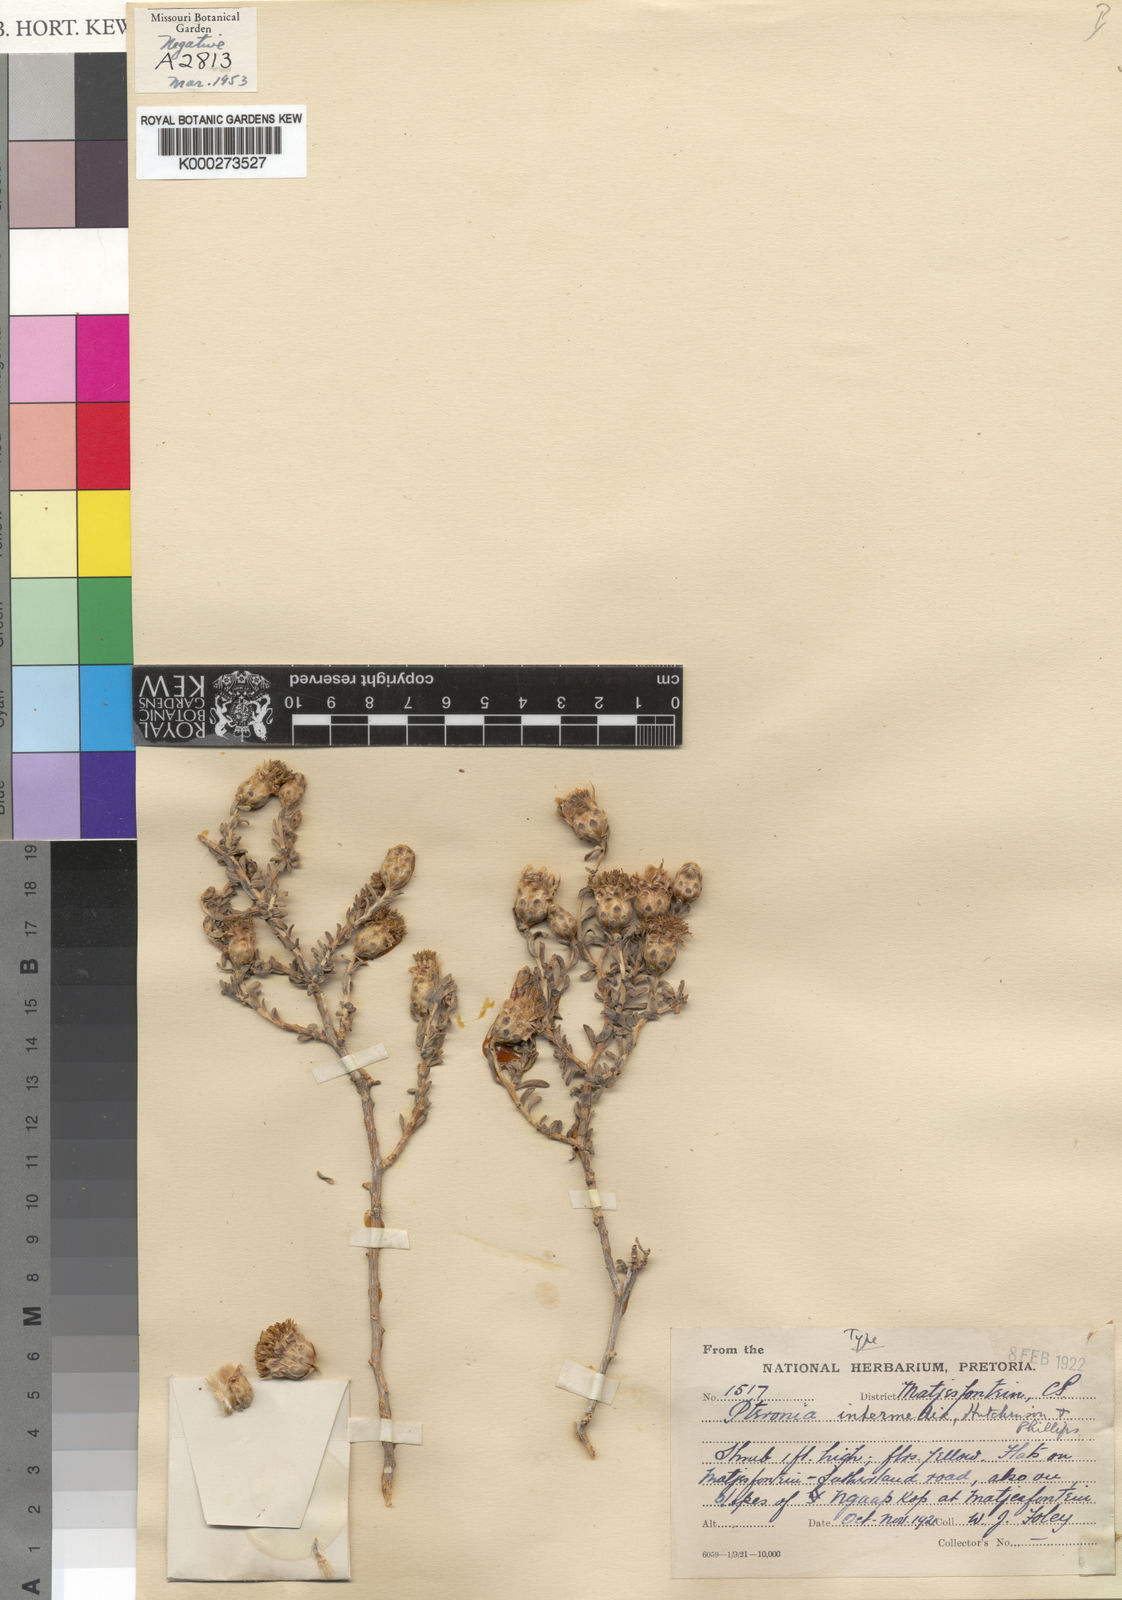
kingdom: Plantae
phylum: Tracheophyta
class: Magnoliopsida
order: Asterales
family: Asteraceae
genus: Pteronia
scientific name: Pteronia intermedia
